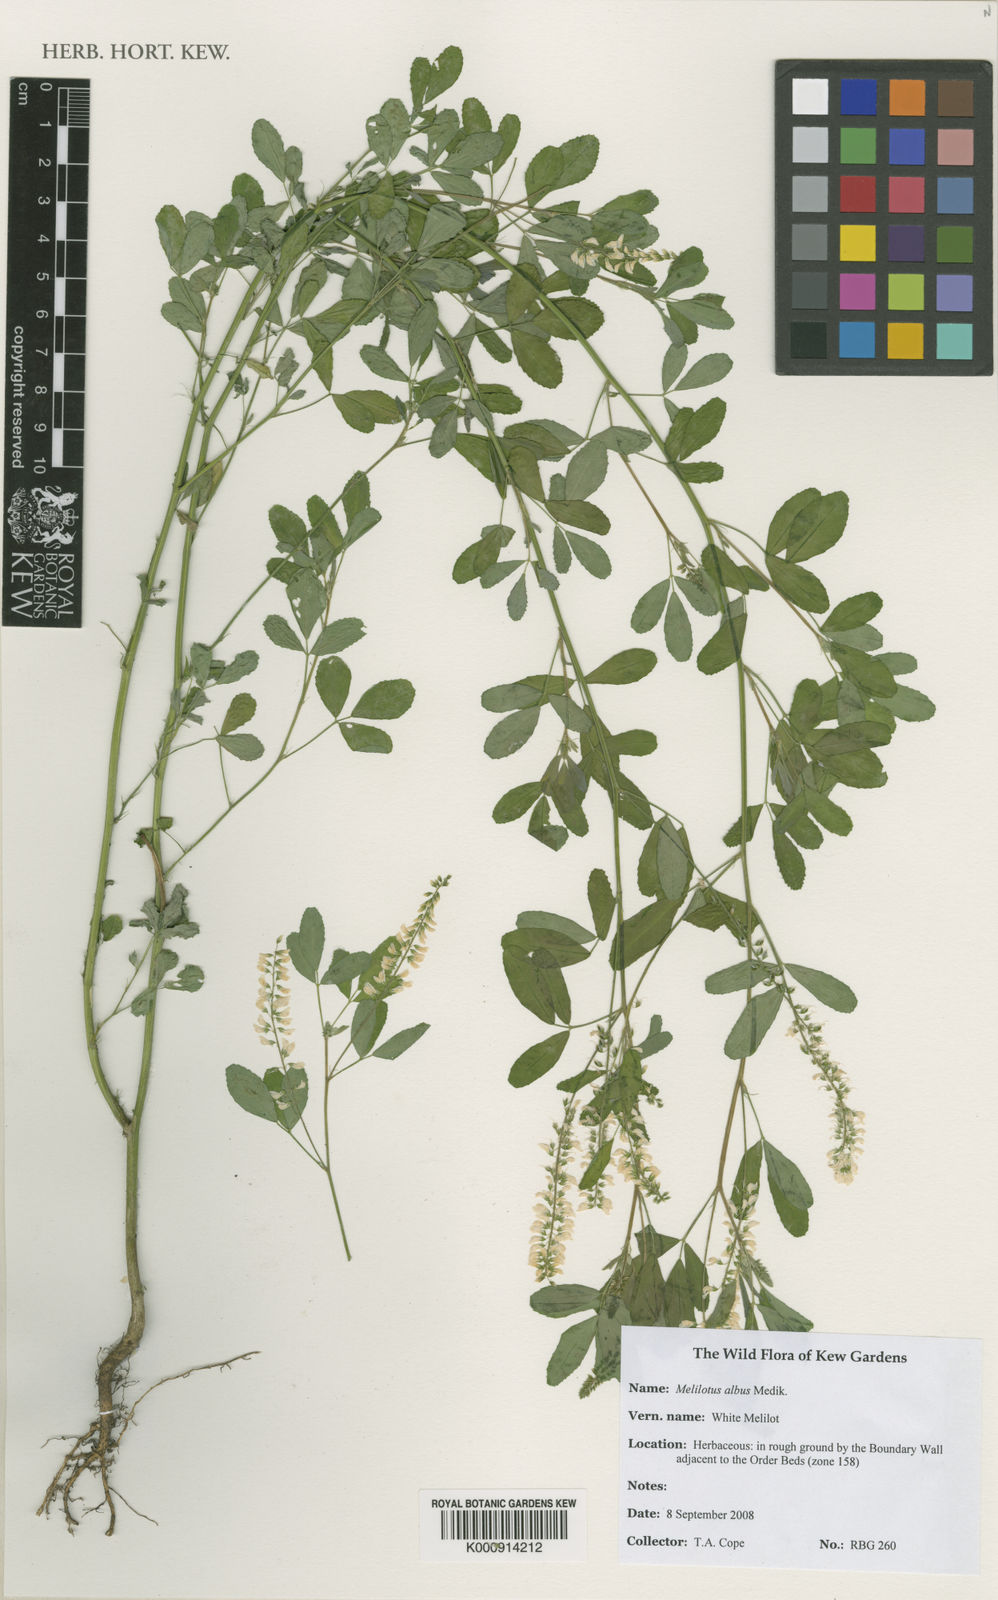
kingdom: Plantae
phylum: Tracheophyta
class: Magnoliopsida
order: Fabales
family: Fabaceae
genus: Melilotus
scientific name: Melilotus albus
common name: White melilot
